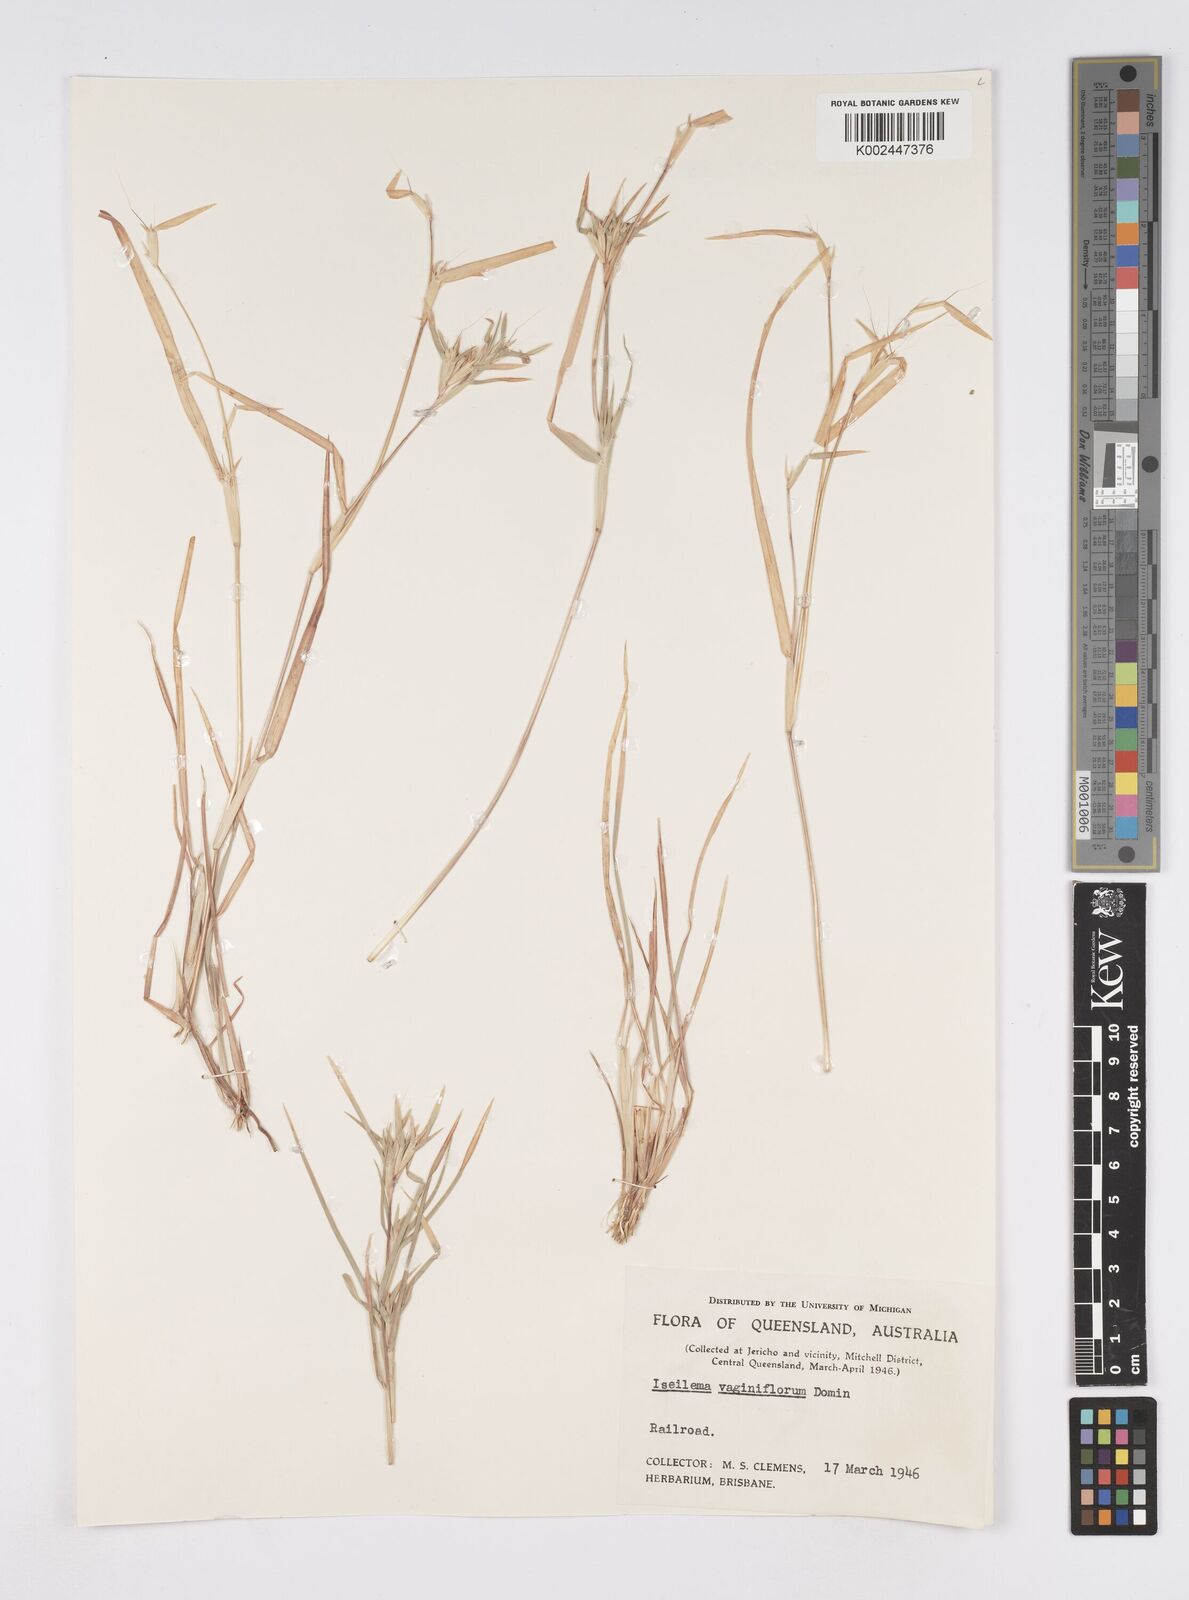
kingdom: Plantae
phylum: Tracheophyta
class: Liliopsida
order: Poales
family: Poaceae
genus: Iseilema
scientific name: Iseilema vaginiflorum
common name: Red flinders grass
